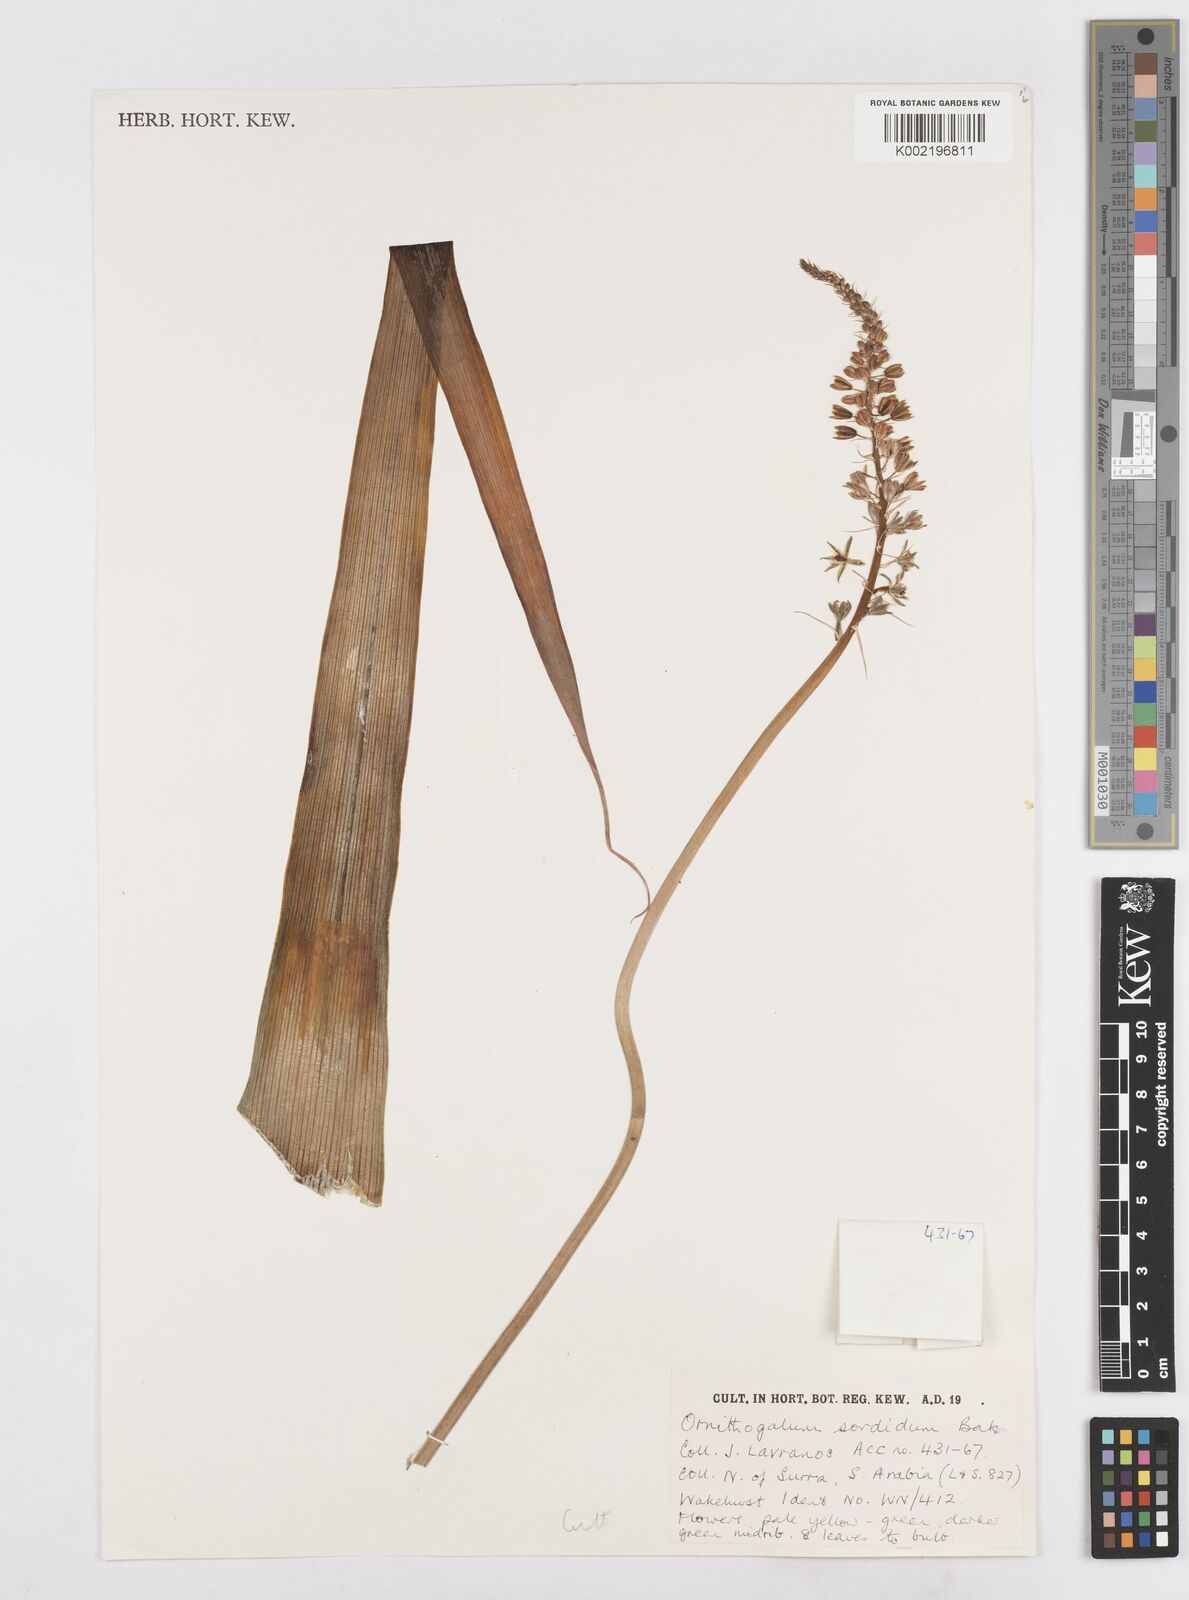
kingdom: Plantae
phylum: Tracheophyta
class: Liliopsida
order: Asparagales
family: Asparagaceae
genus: Albuca
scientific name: Albuca virens
